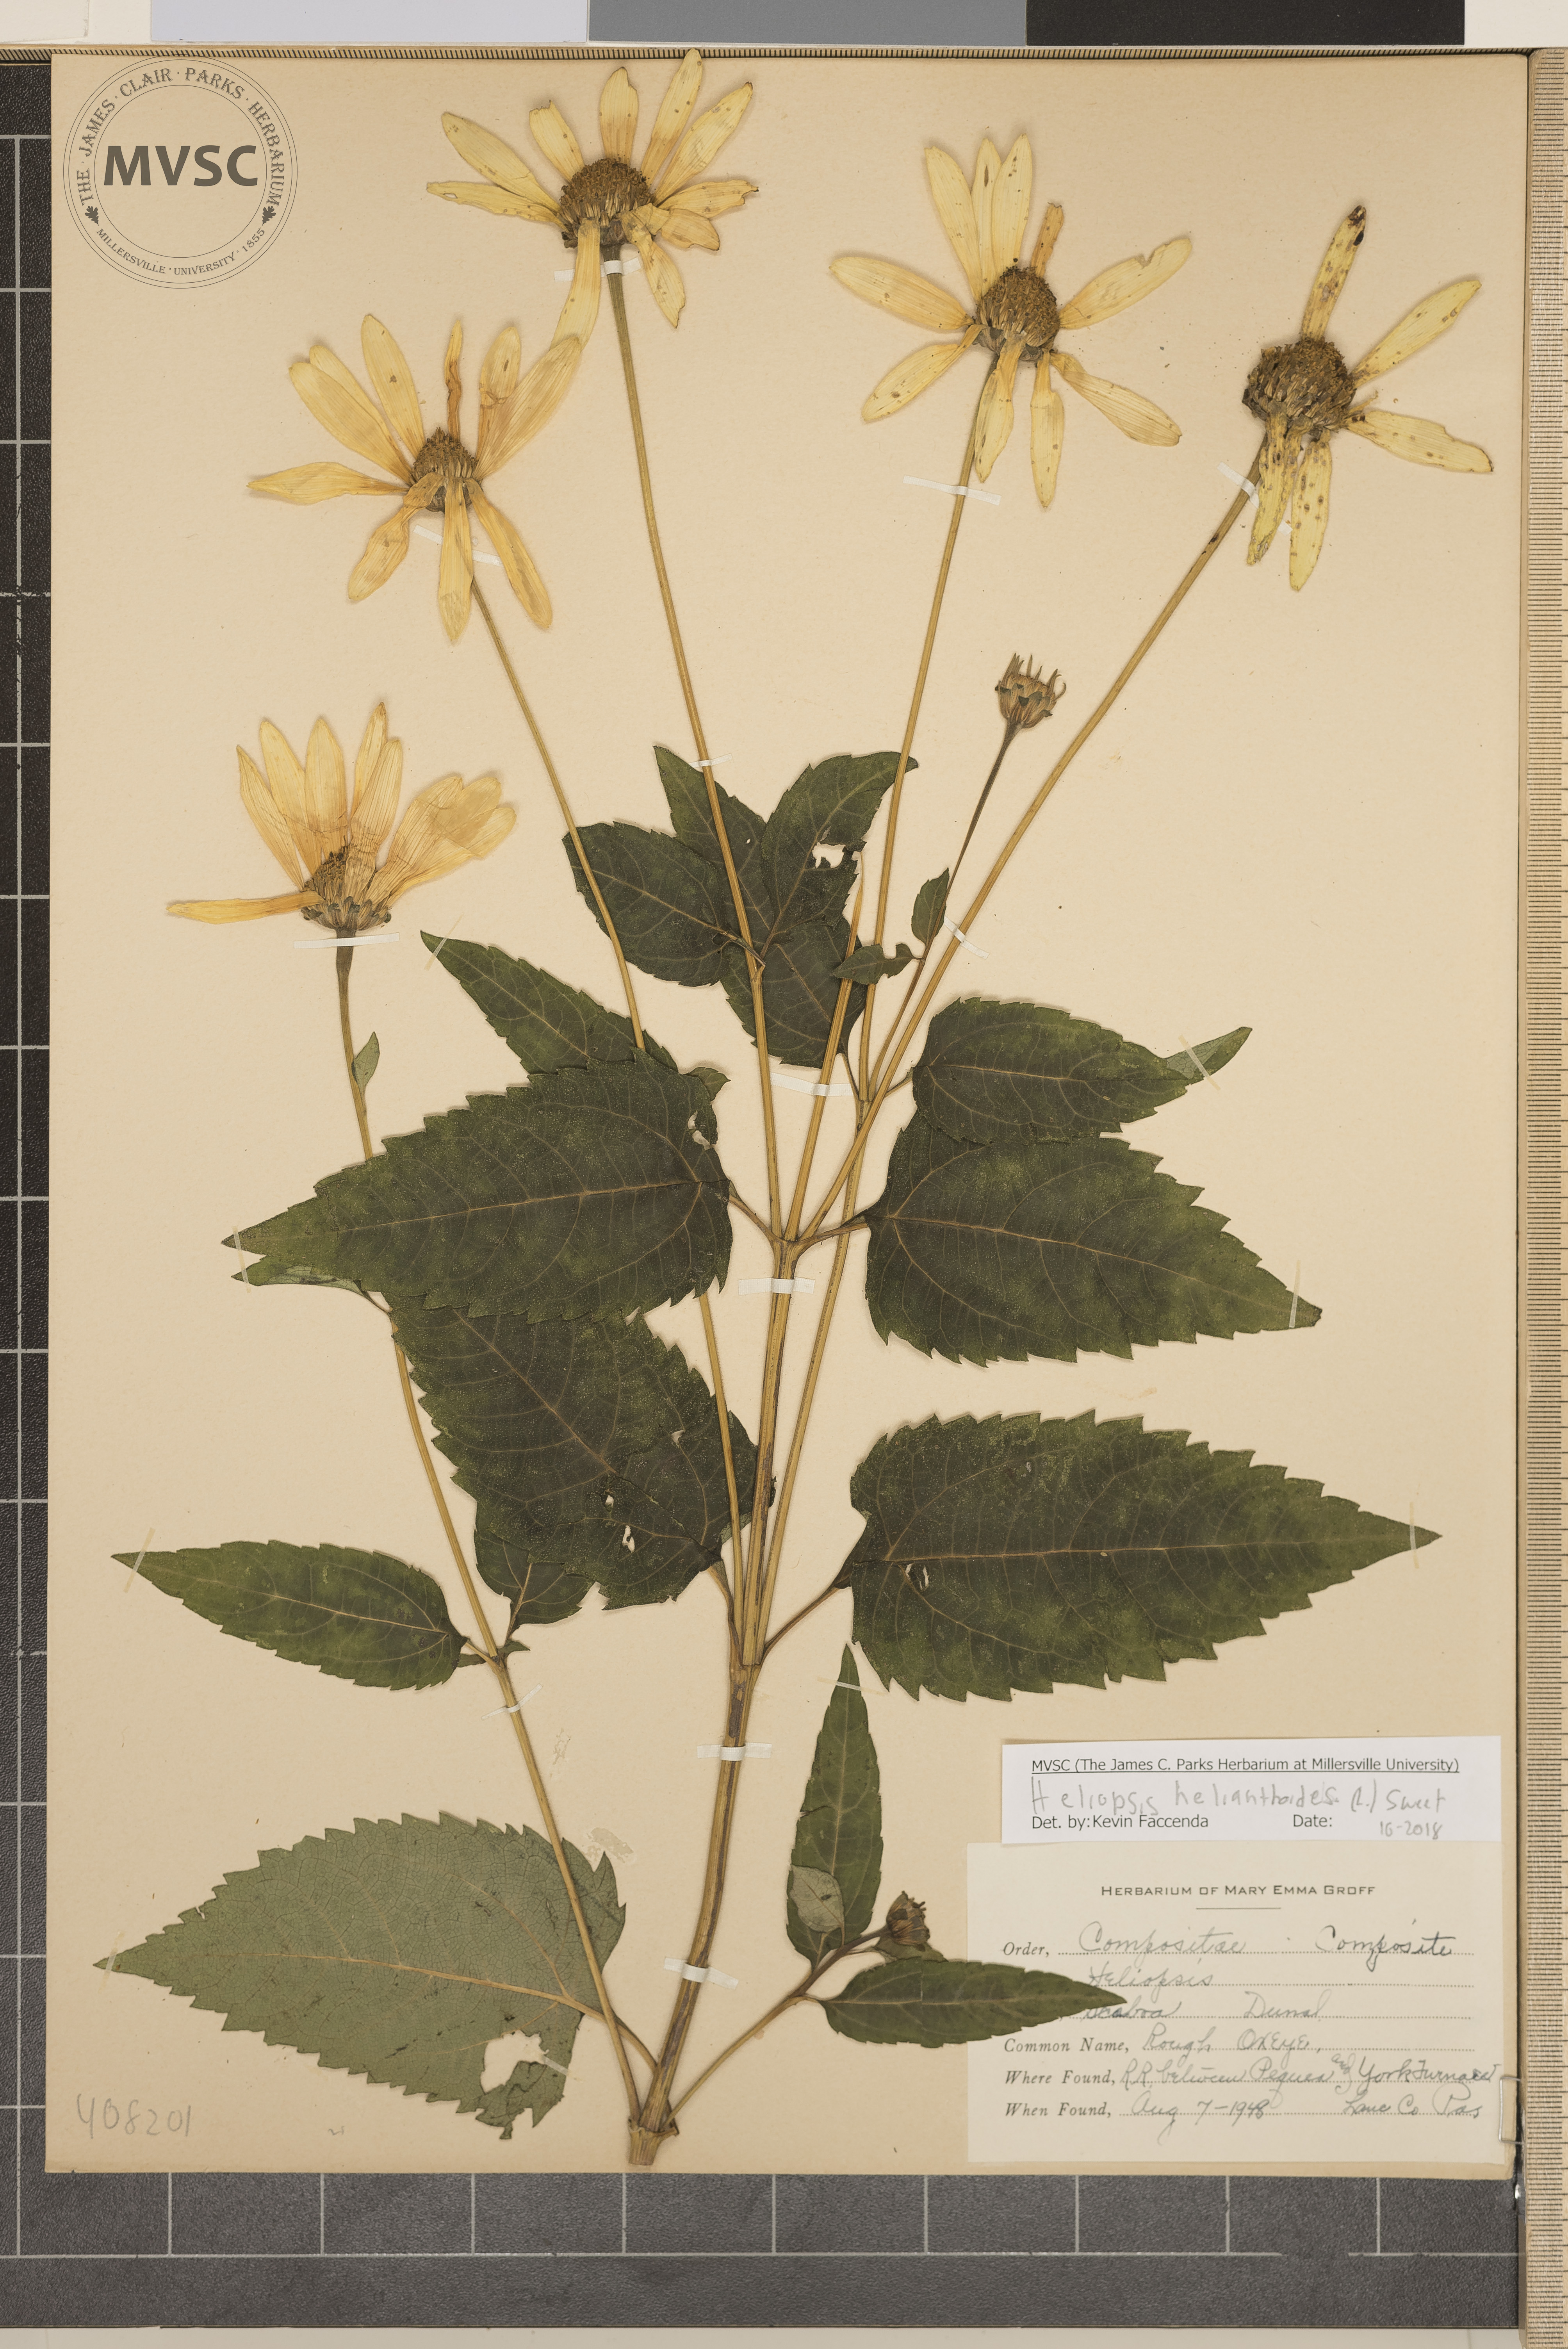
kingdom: Plantae
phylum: Tracheophyta
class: Magnoliopsida
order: Asterales
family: Asteraceae
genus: Heliopsis
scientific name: Heliopsis helianthoides
